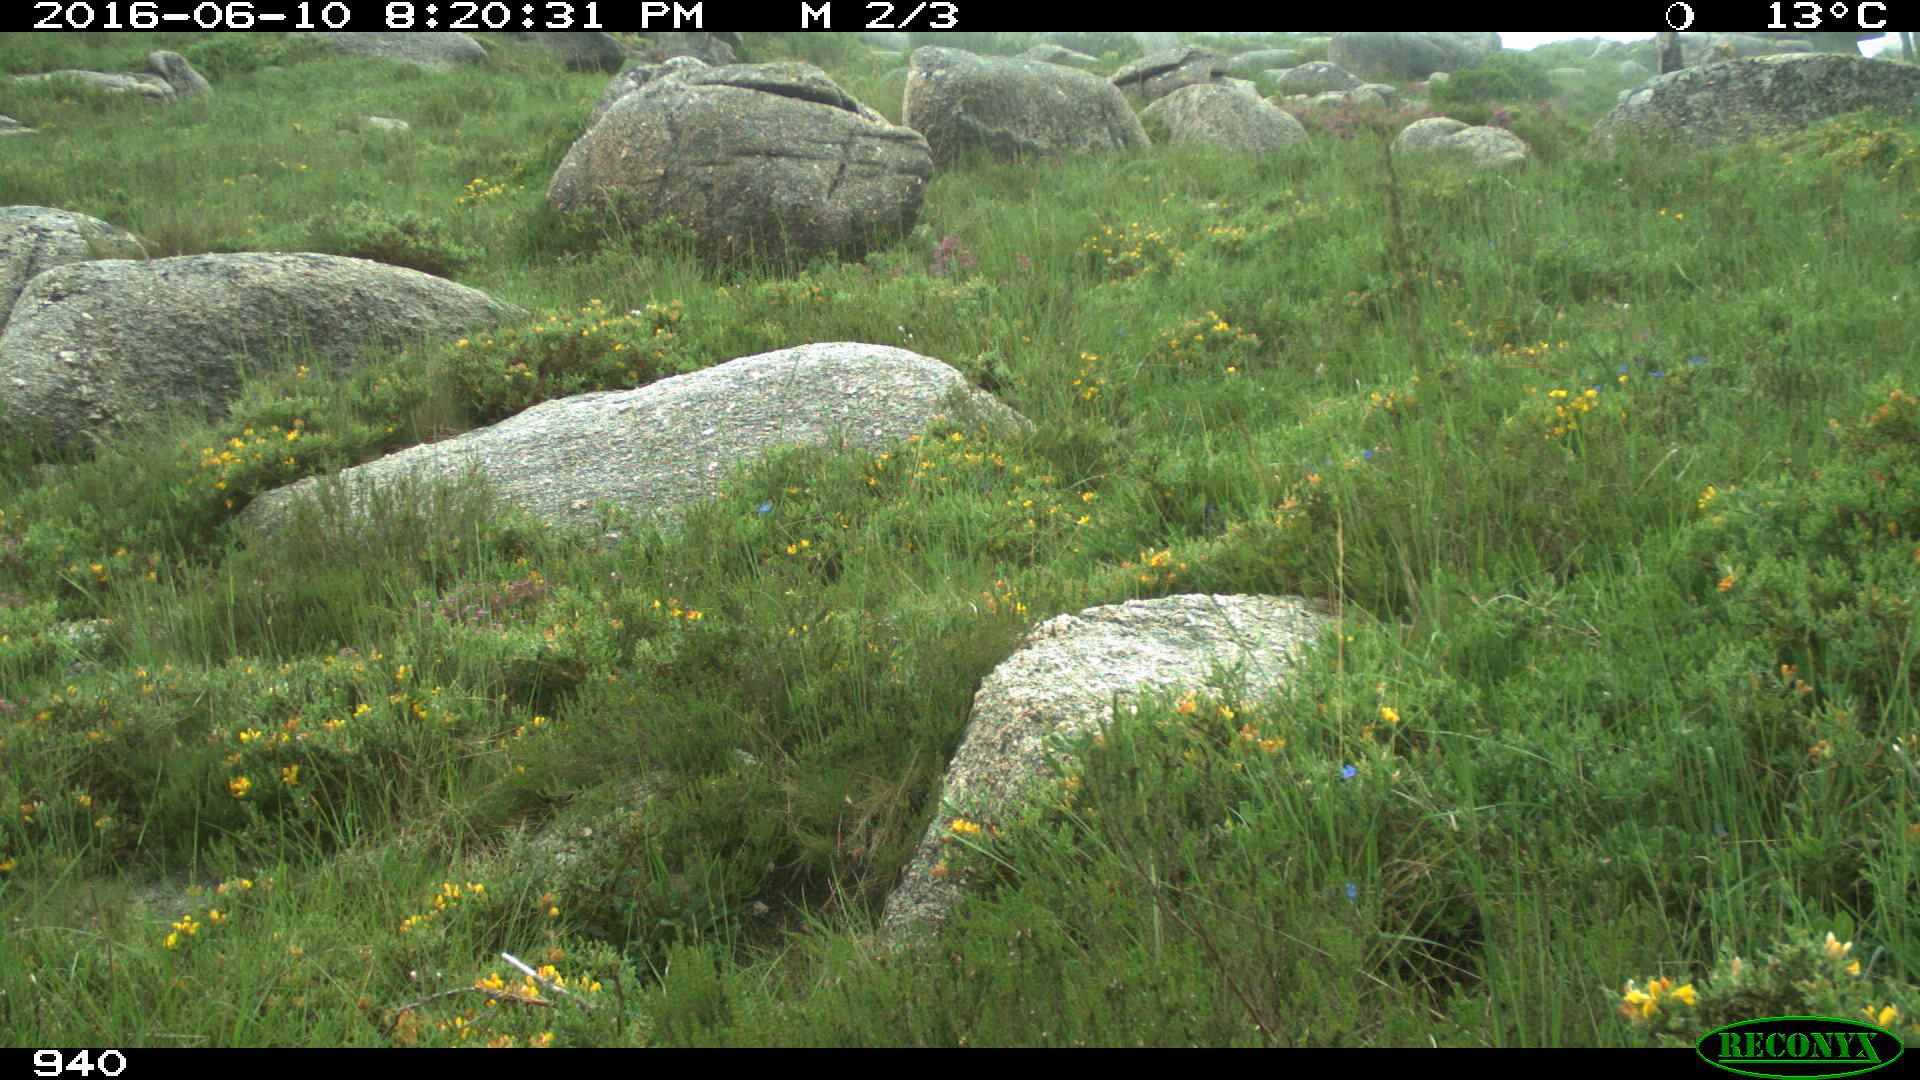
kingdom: Animalia
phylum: Chordata
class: Mammalia
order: Perissodactyla
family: Equidae
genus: Equus
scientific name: Equus caballus
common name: Horse
